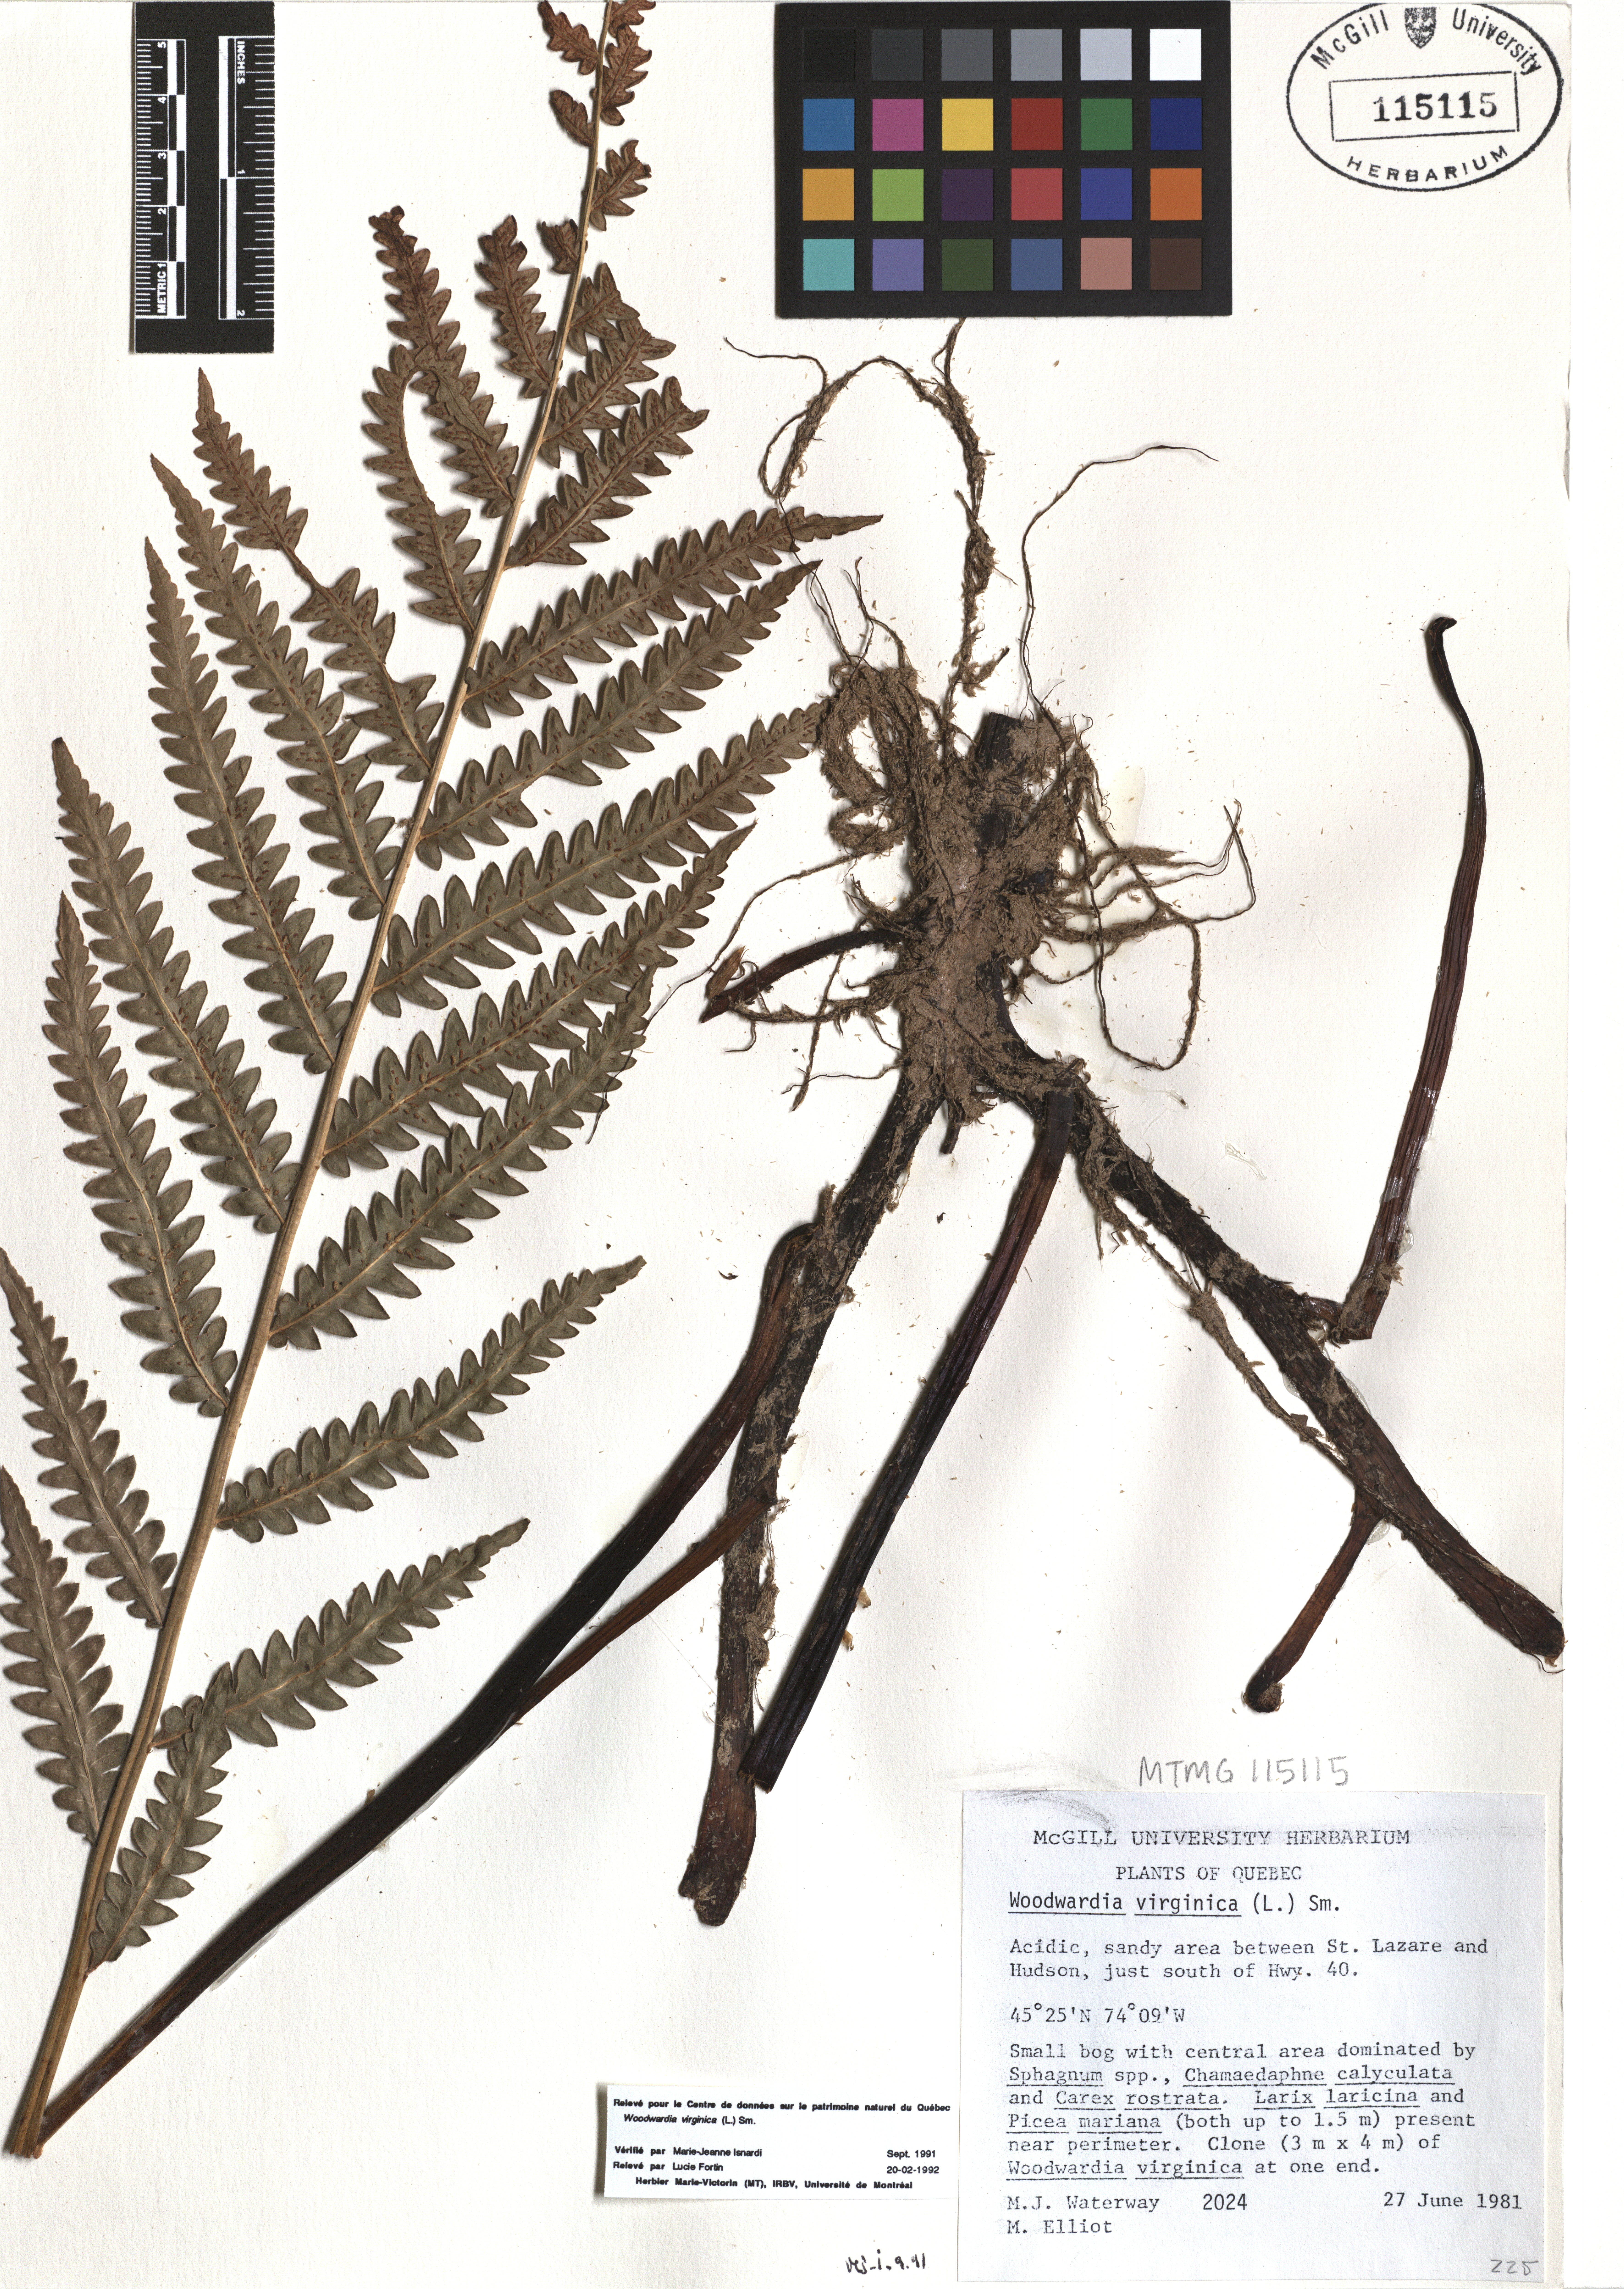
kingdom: Plantae
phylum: Tracheophyta
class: Polypodiopsida
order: Polypodiales
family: Blechnaceae
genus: Anchistea
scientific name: Anchistea virginica
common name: Virginia chain fern
